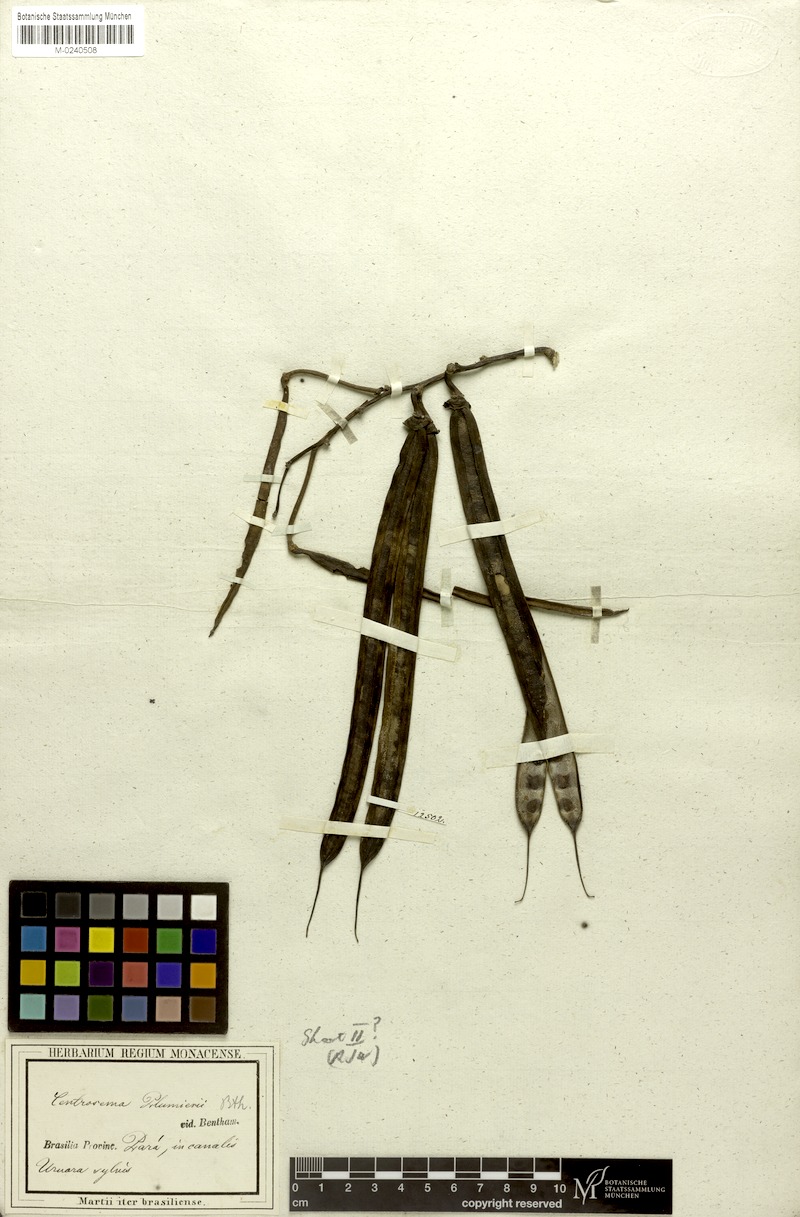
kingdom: Plantae
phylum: Tracheophyta
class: Magnoliopsida
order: Fabales
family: Fabaceae
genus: Centrosema
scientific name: Centrosema plumieri
